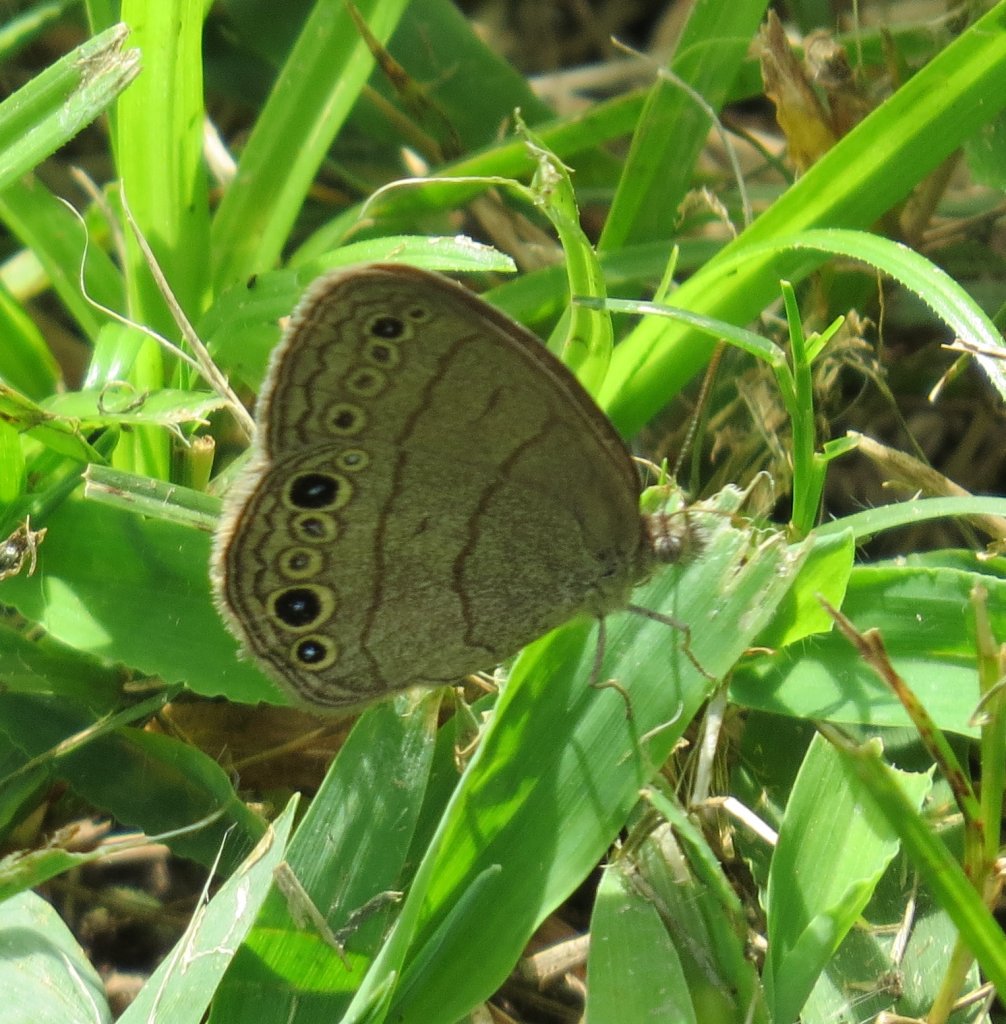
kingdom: Animalia
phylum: Arthropoda
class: Insecta
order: Lepidoptera
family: Nymphalidae
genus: Hermeuptychia
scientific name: Hermeuptychia hermes
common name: Carolina Satyr
